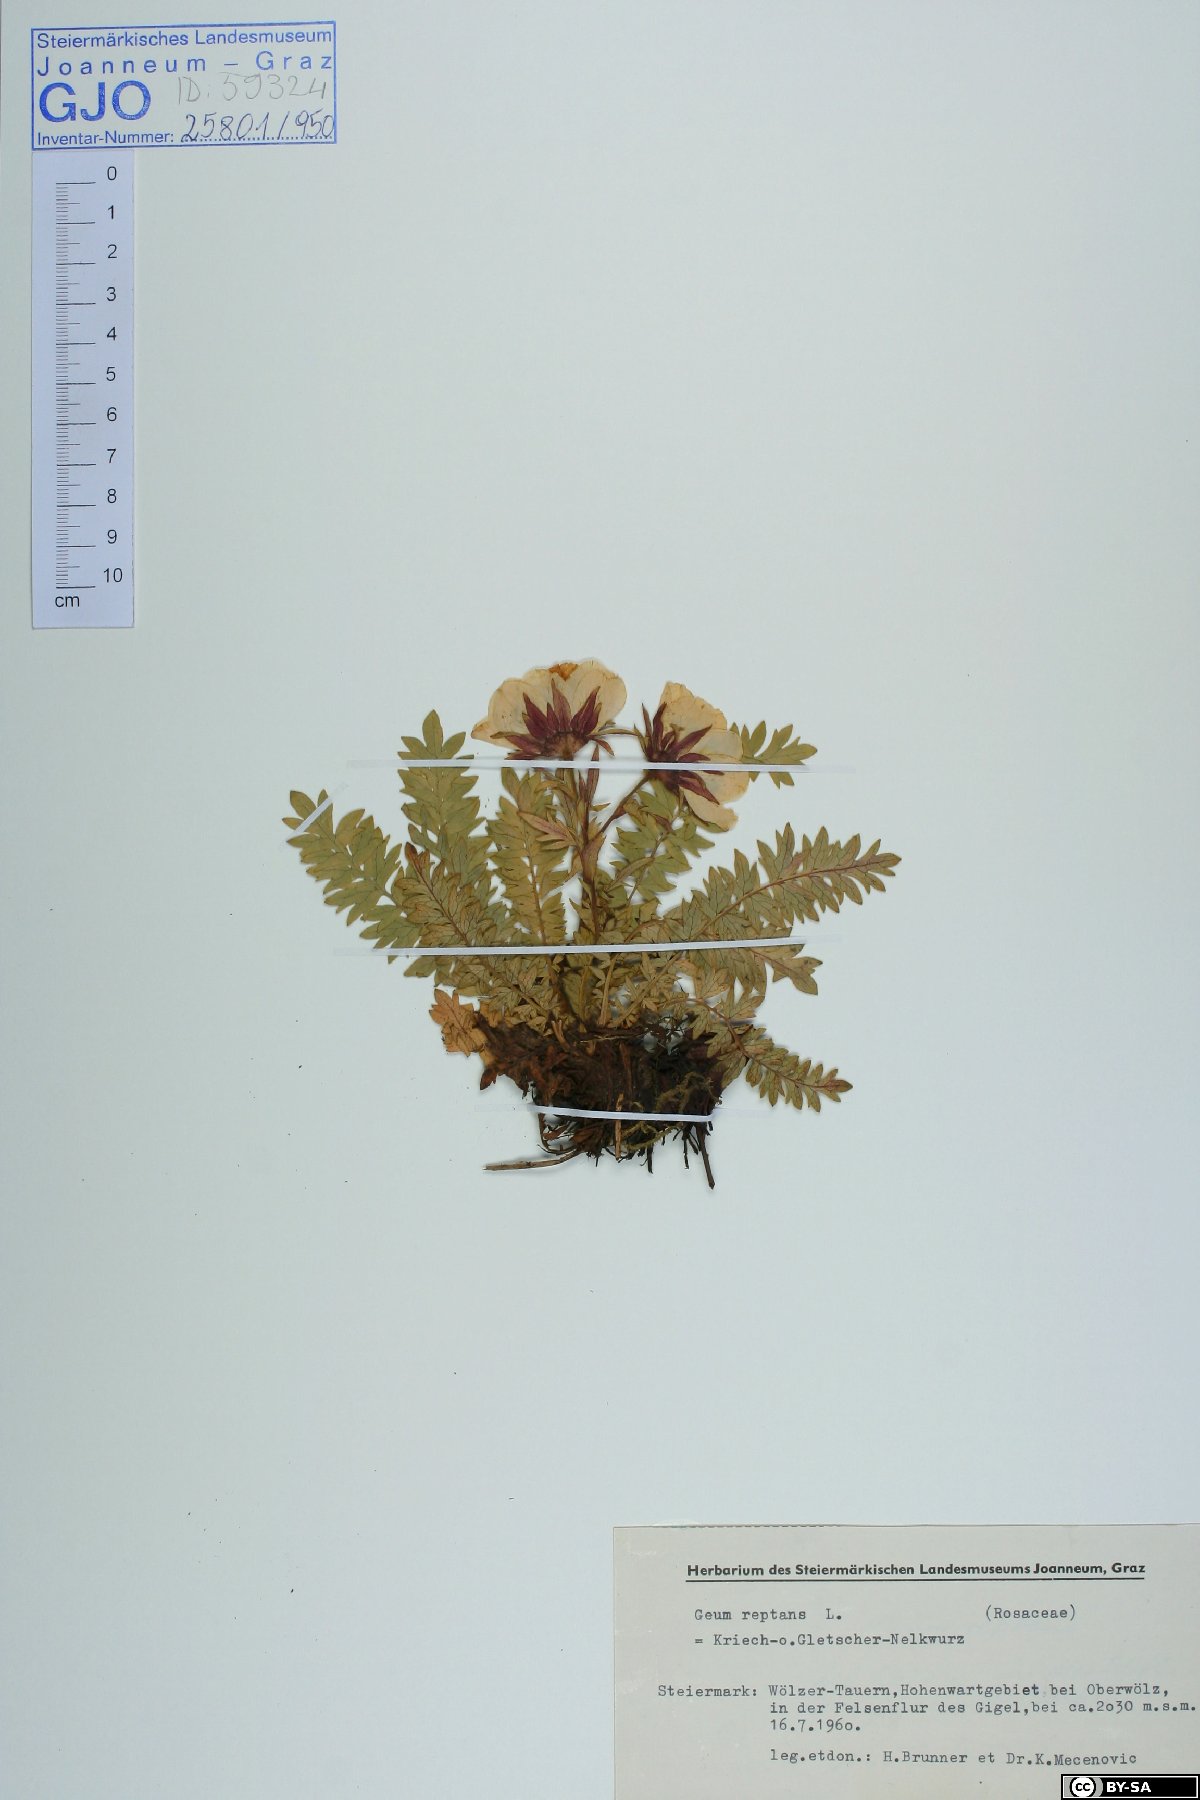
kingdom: Plantae
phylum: Tracheophyta
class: Magnoliopsida
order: Rosales
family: Rosaceae
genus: Geum
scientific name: Geum reptans
